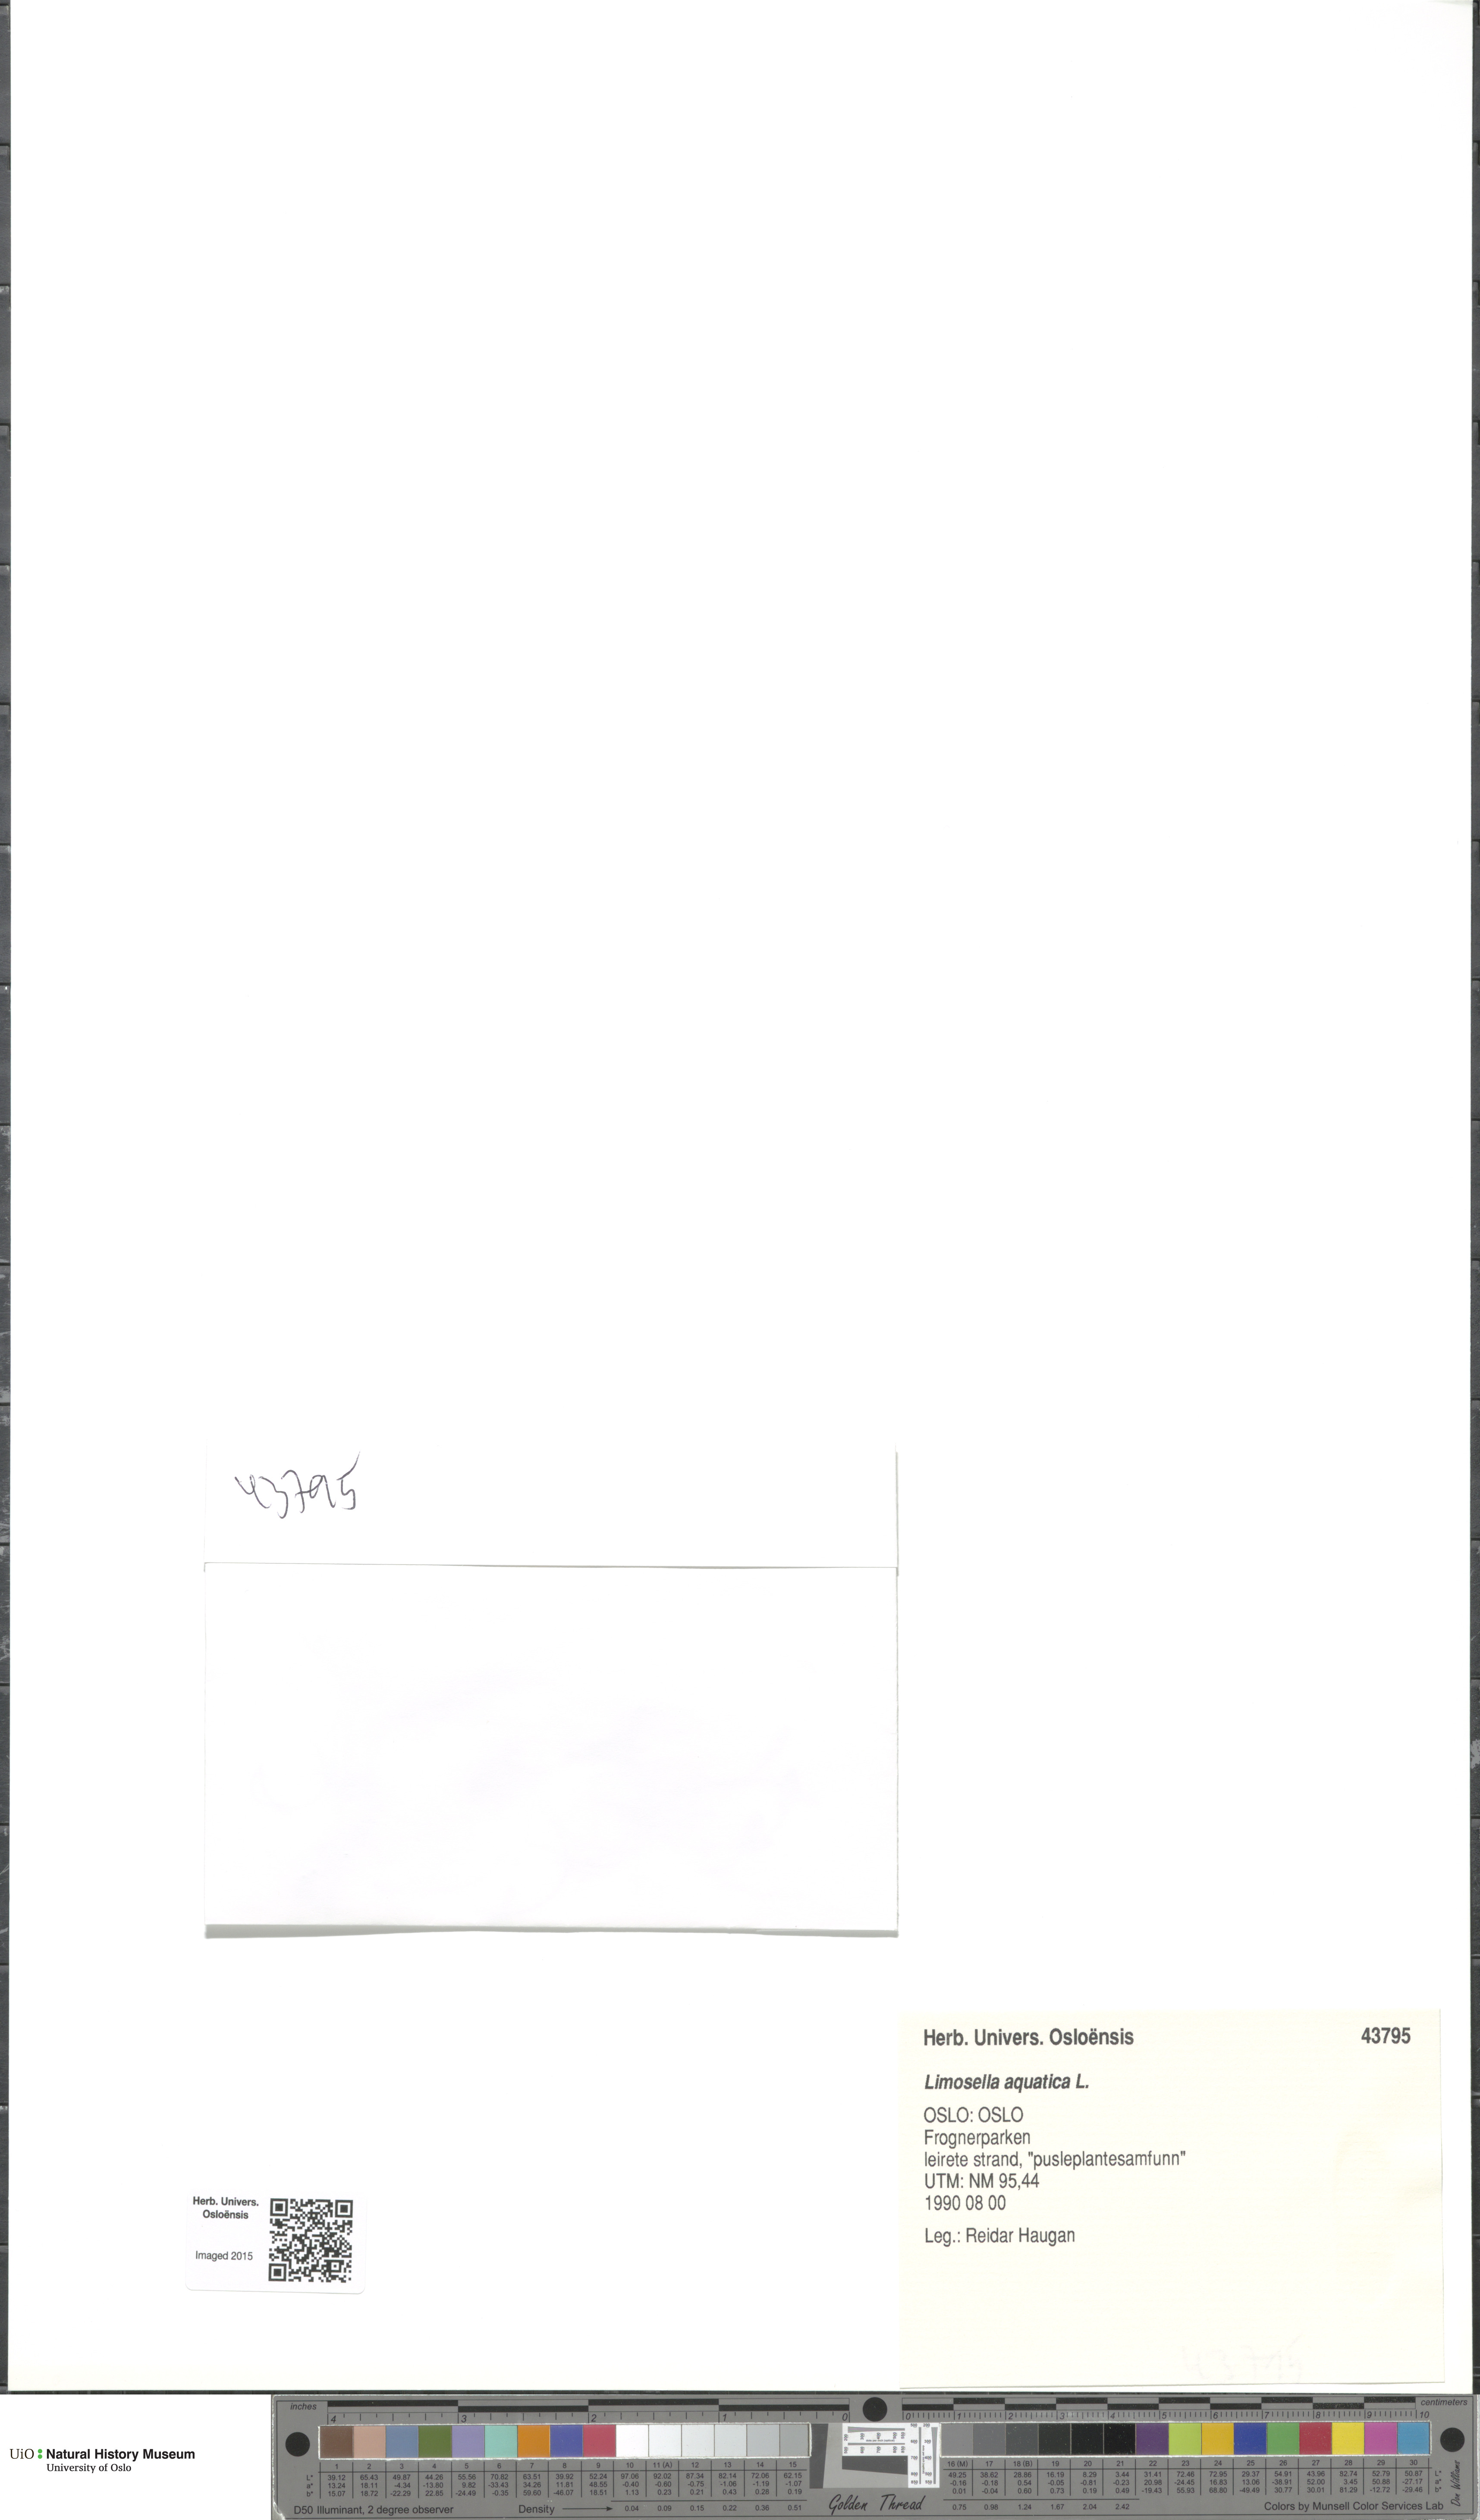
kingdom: Plantae
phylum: Tracheophyta
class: Magnoliopsida
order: Lamiales
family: Scrophulariaceae
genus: Limosella
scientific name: Limosella aquatica
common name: Mudwort
